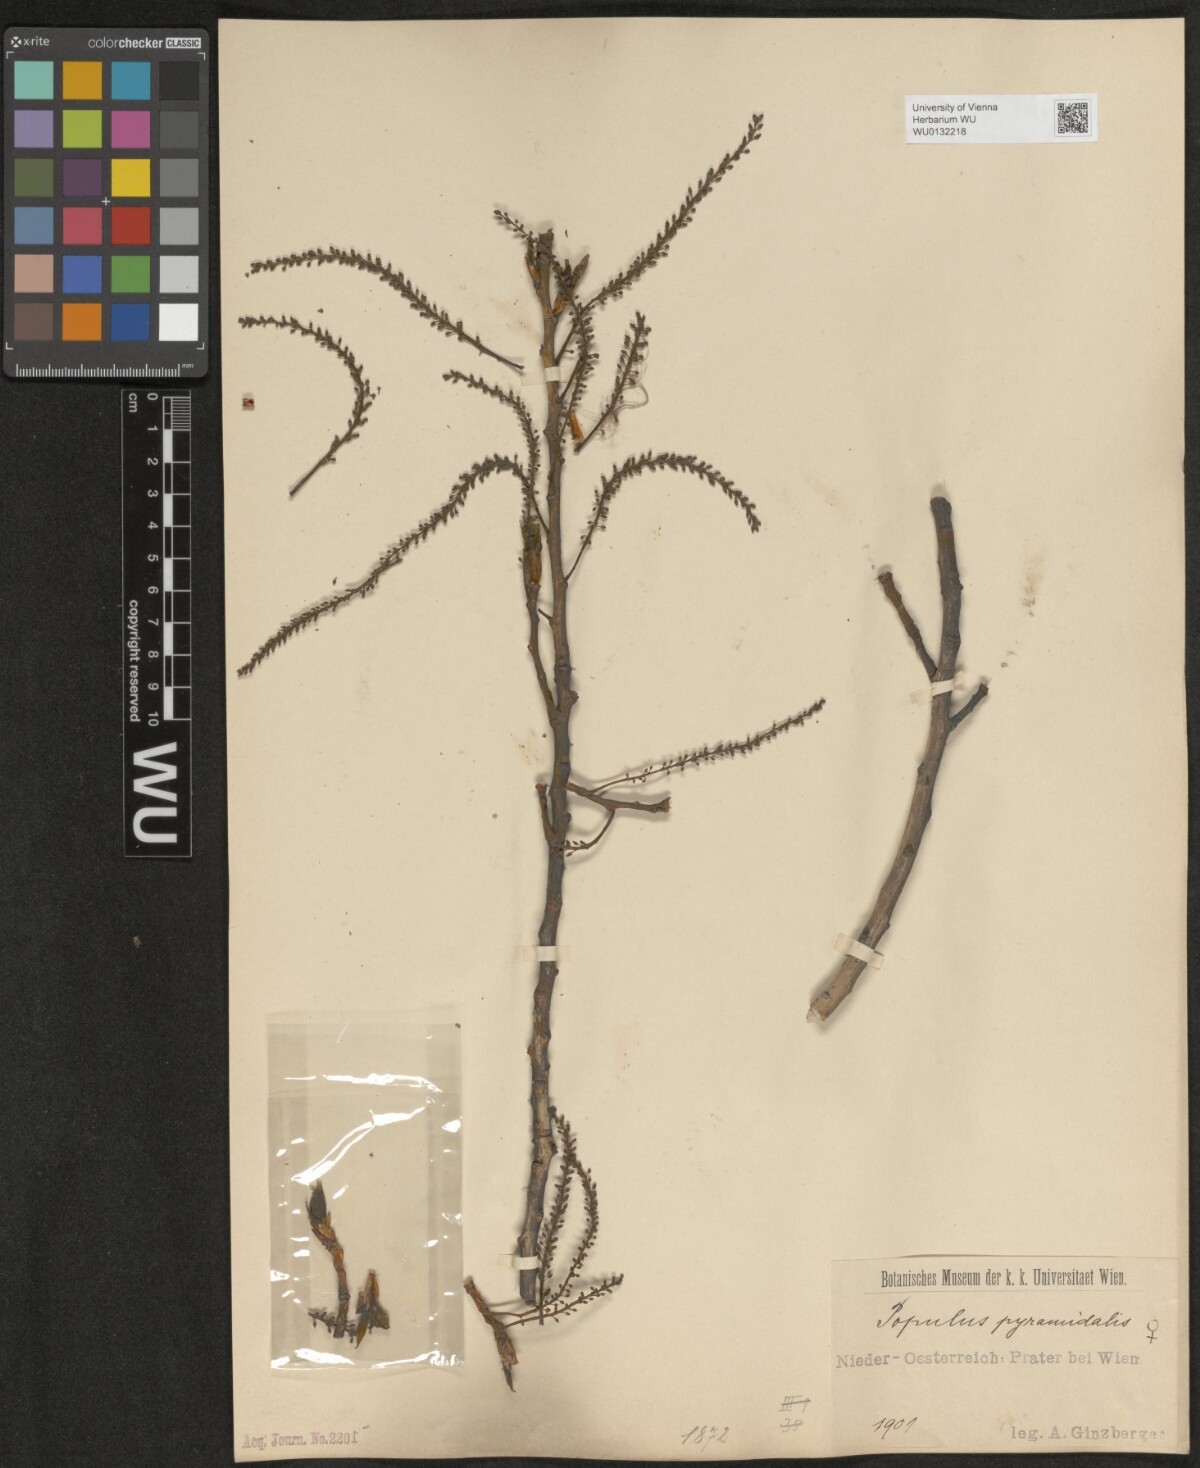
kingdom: Plantae
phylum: Tracheophyta
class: Magnoliopsida
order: Malpighiales
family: Salicaceae
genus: Populus
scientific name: Populus nigra
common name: Black poplar
